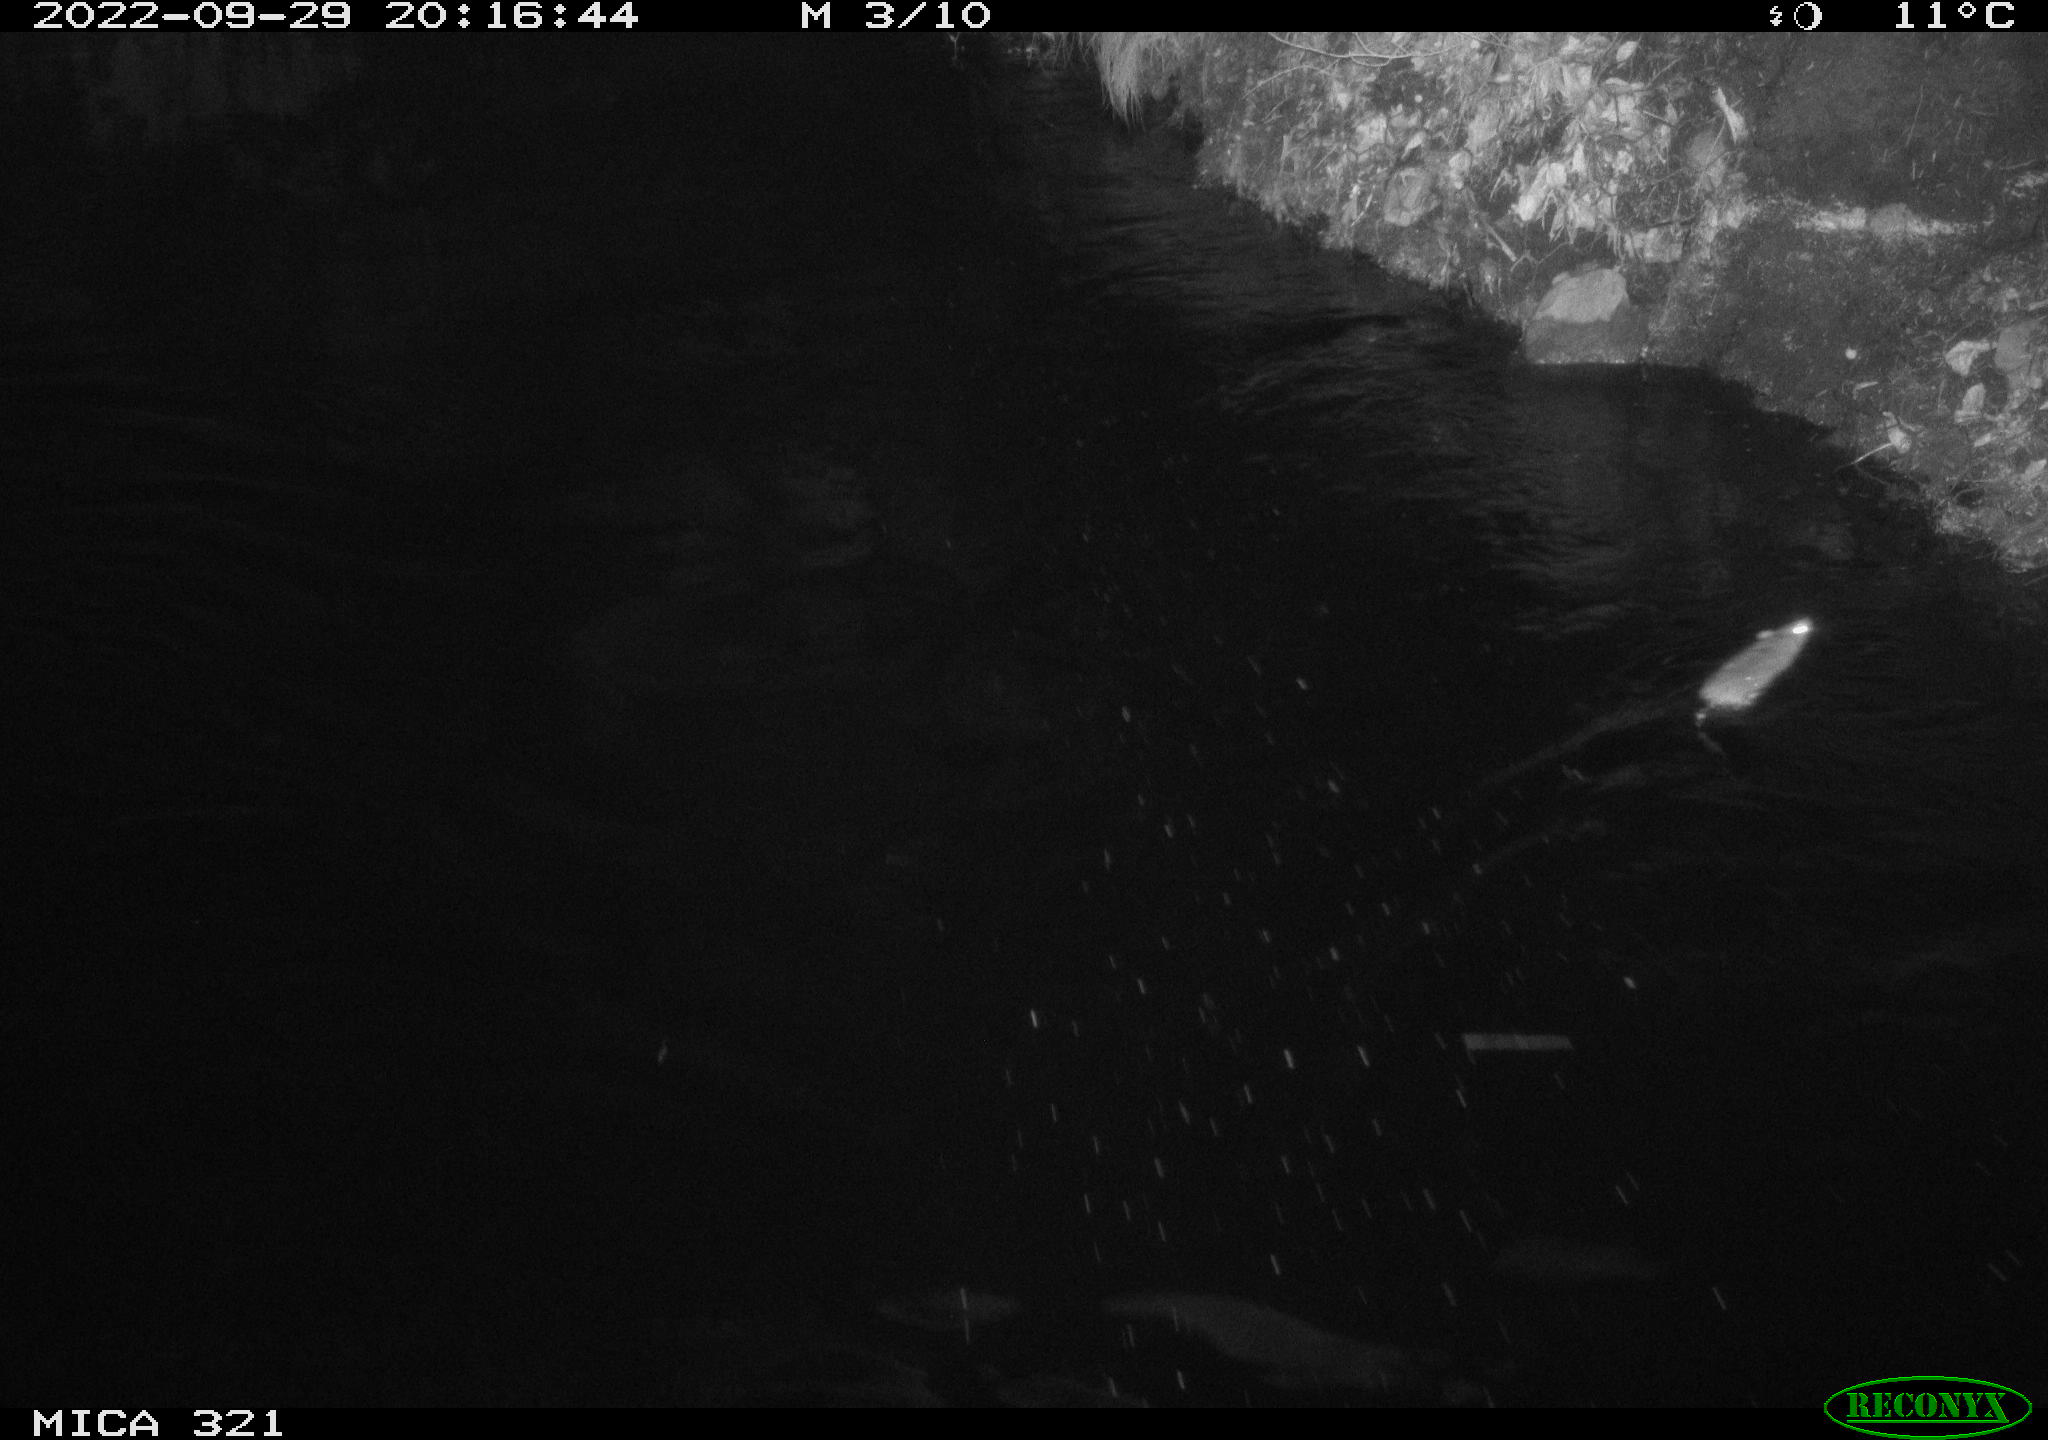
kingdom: Animalia
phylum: Chordata
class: Mammalia
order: Rodentia
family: Muridae
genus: Rattus
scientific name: Rattus norvegicus
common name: Brown rat
